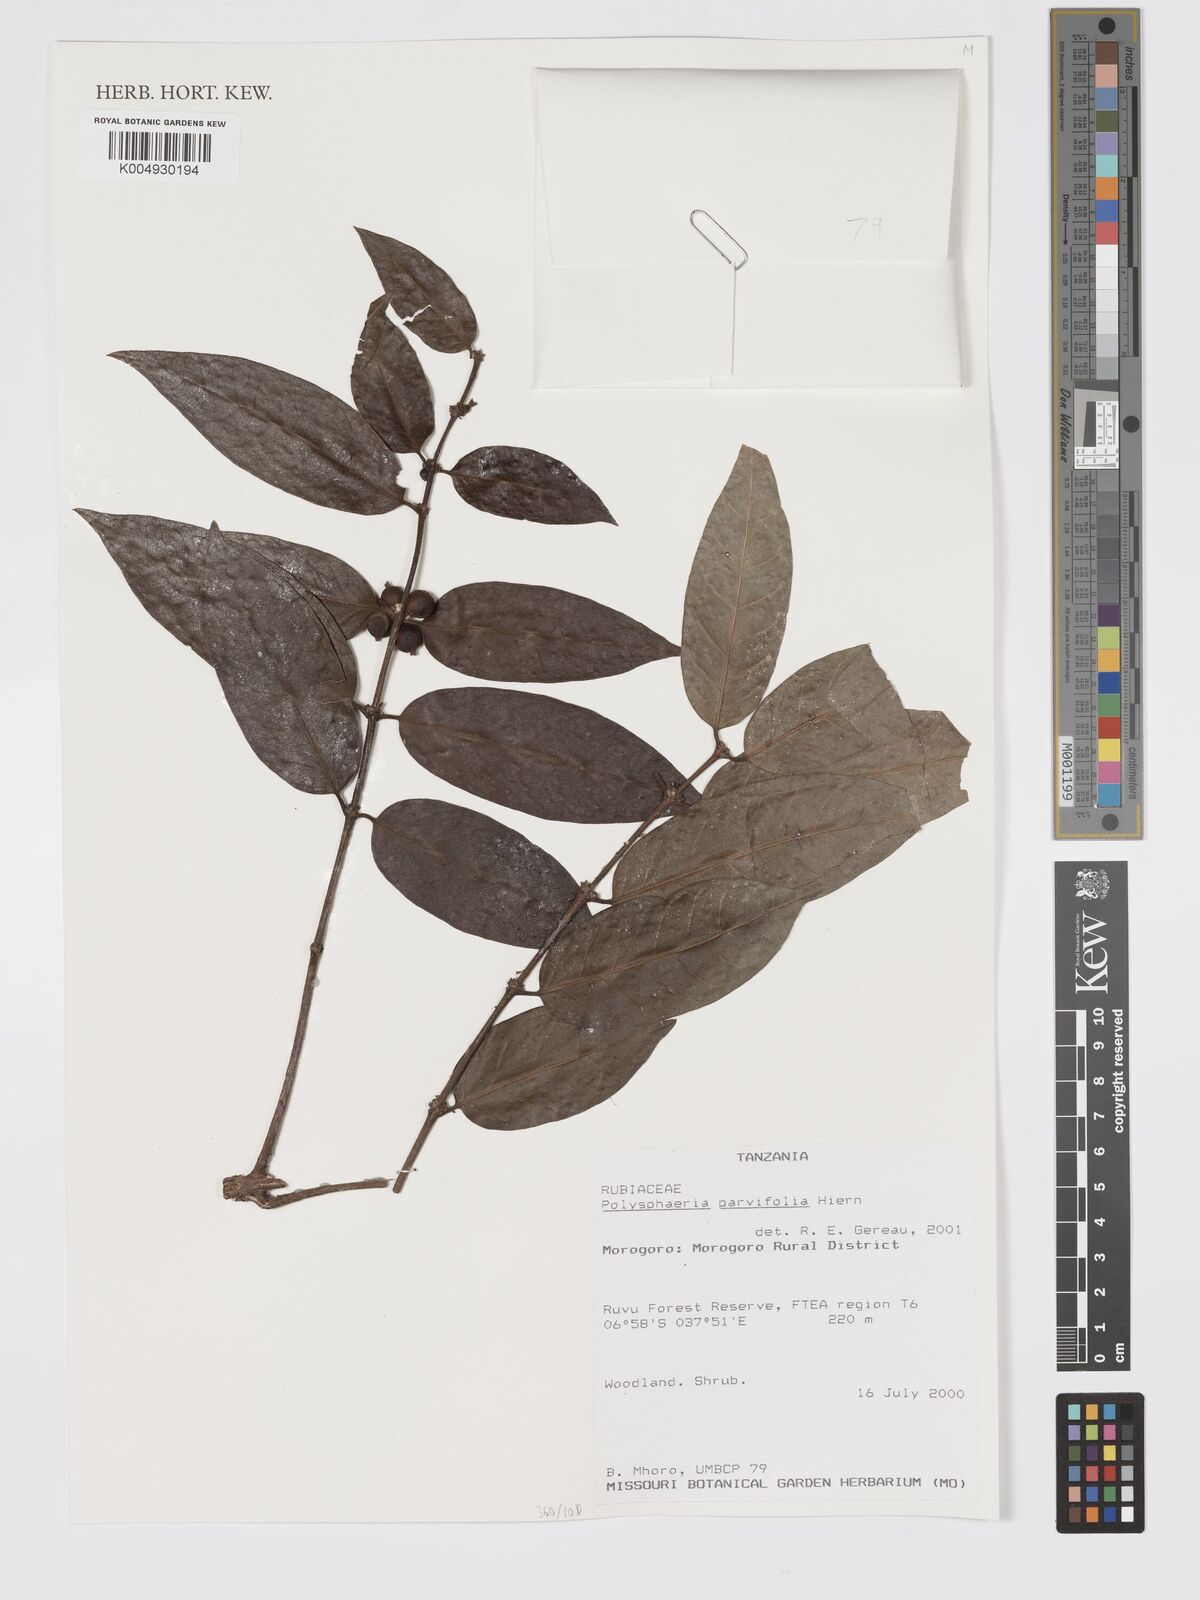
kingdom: Plantae
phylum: Tracheophyta
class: Magnoliopsida
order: Gentianales
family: Rubiaceae
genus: Polysphaeria
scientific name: Polysphaeria parvifolia
